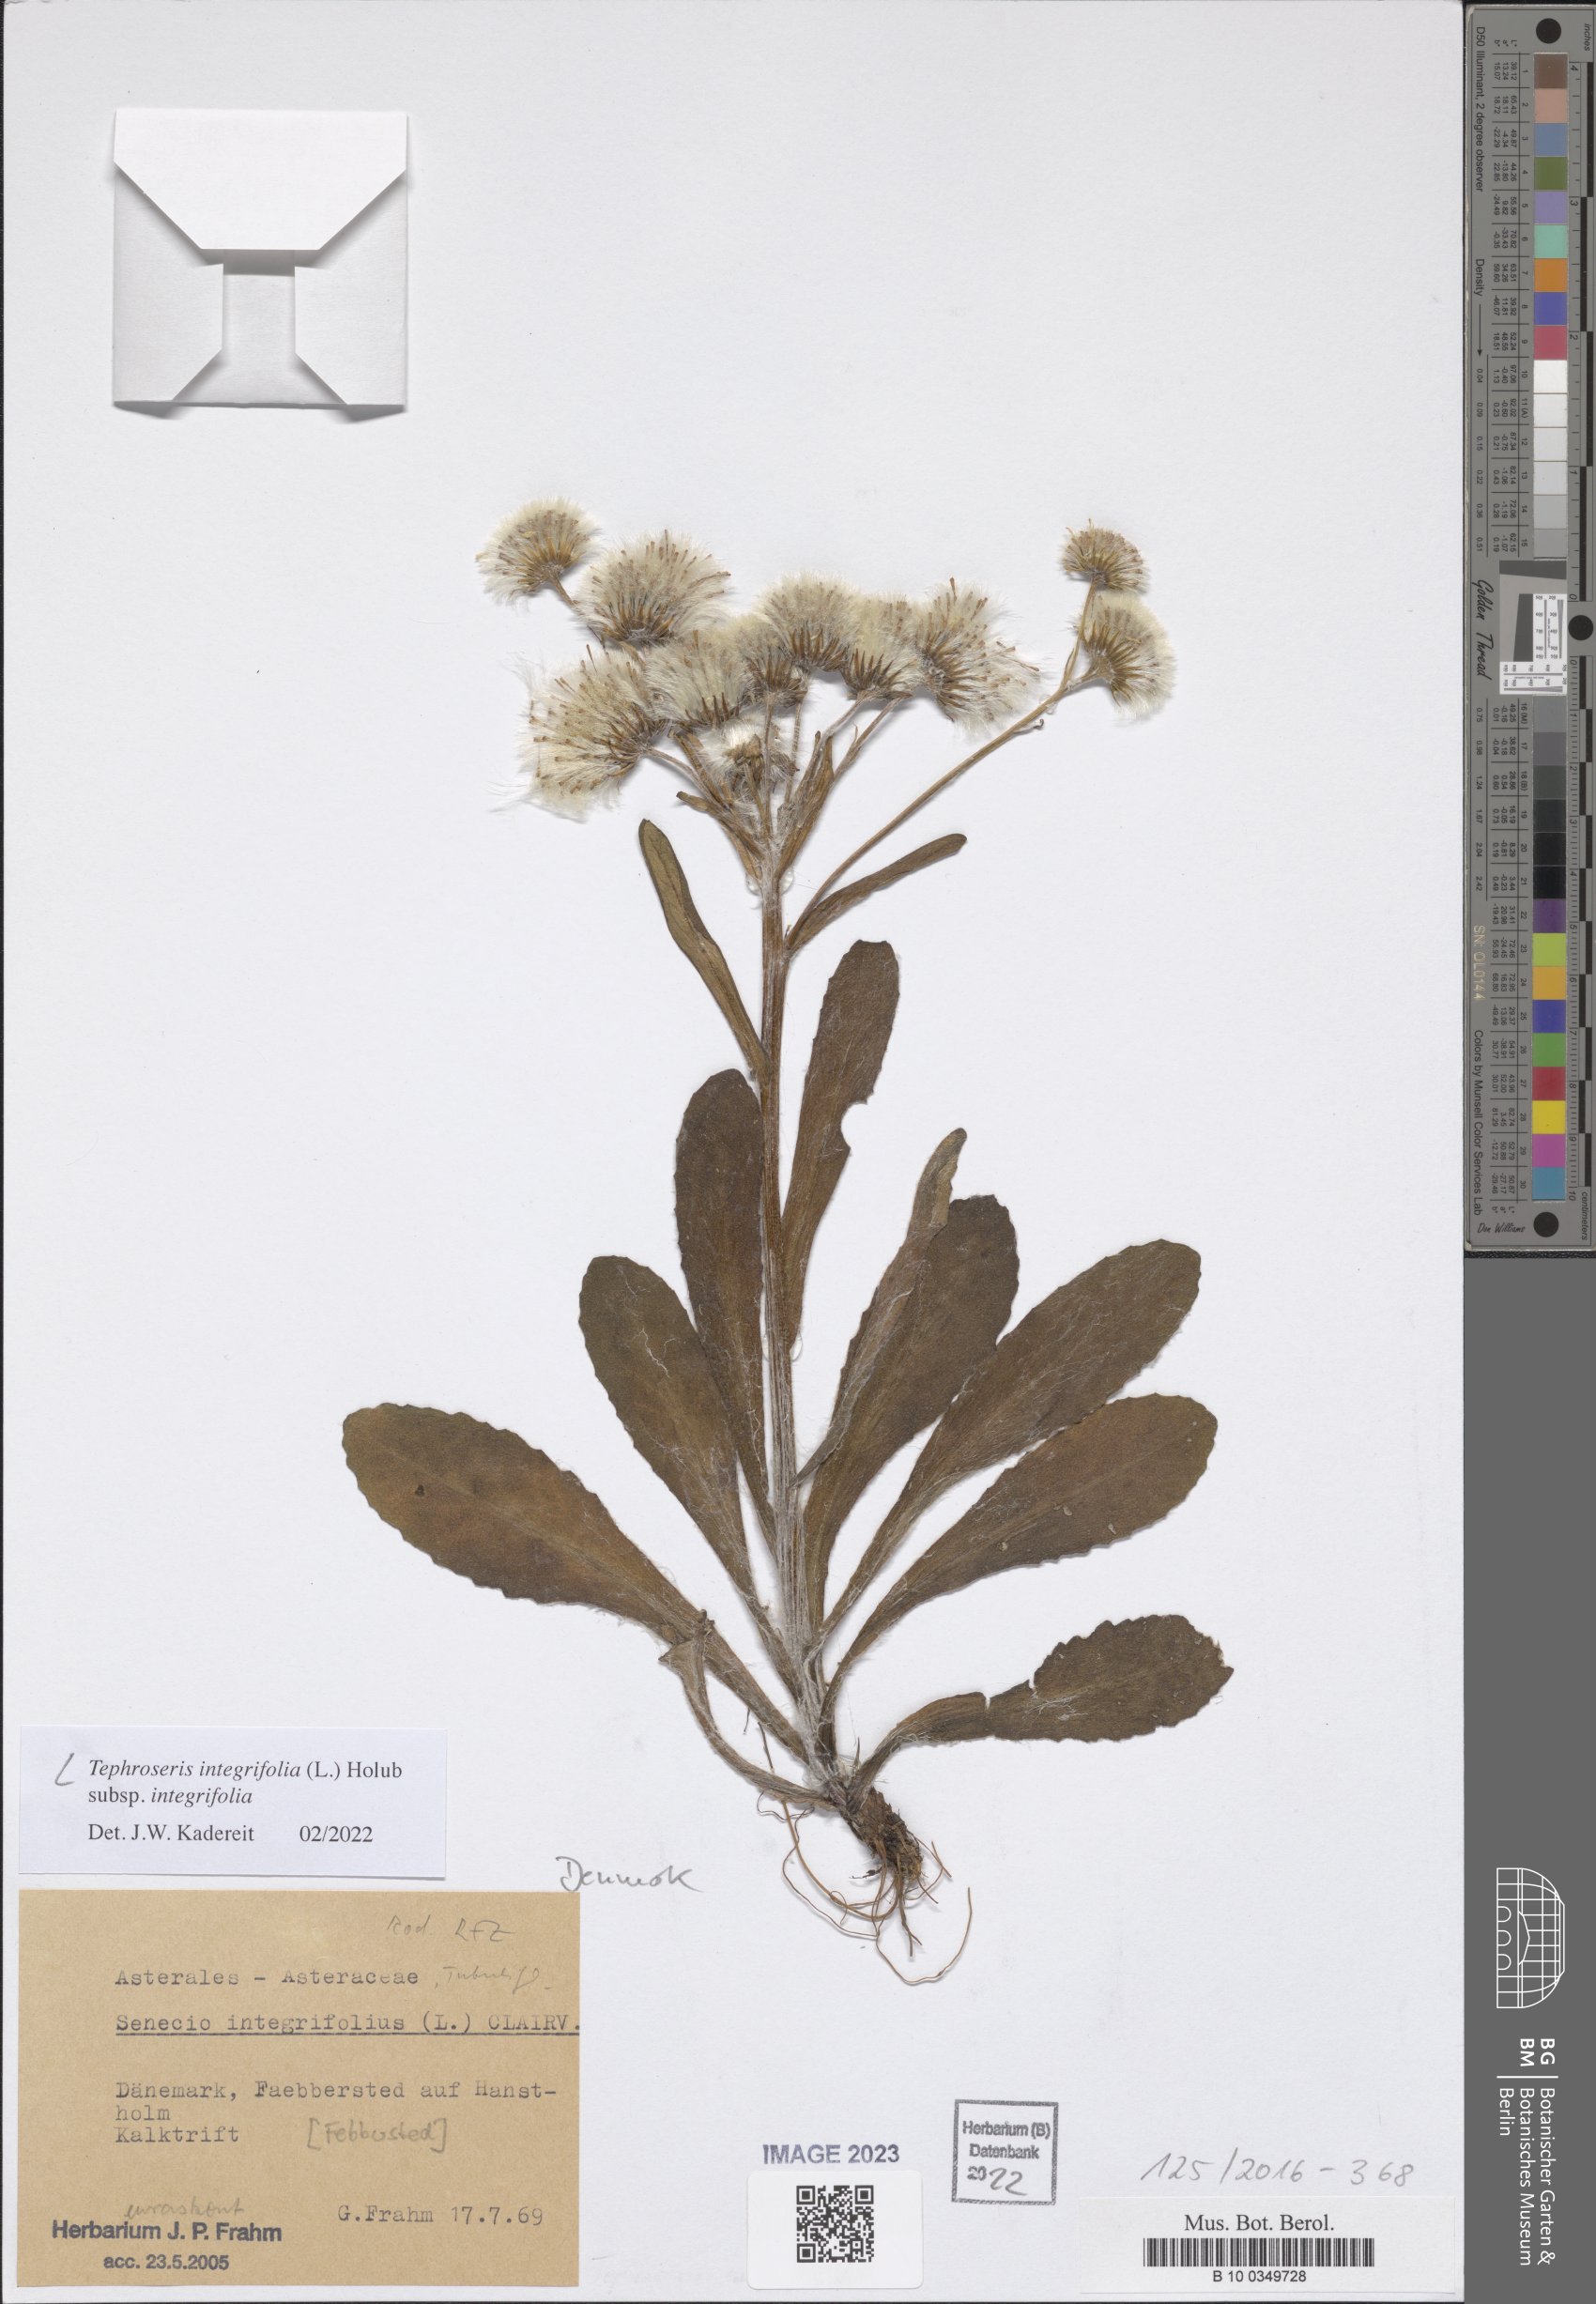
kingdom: Plantae
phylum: Tracheophyta
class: Magnoliopsida
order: Asterales
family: Asteraceae
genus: Tephroseris
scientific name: Tephroseris integrifolia
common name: Field fleawort
